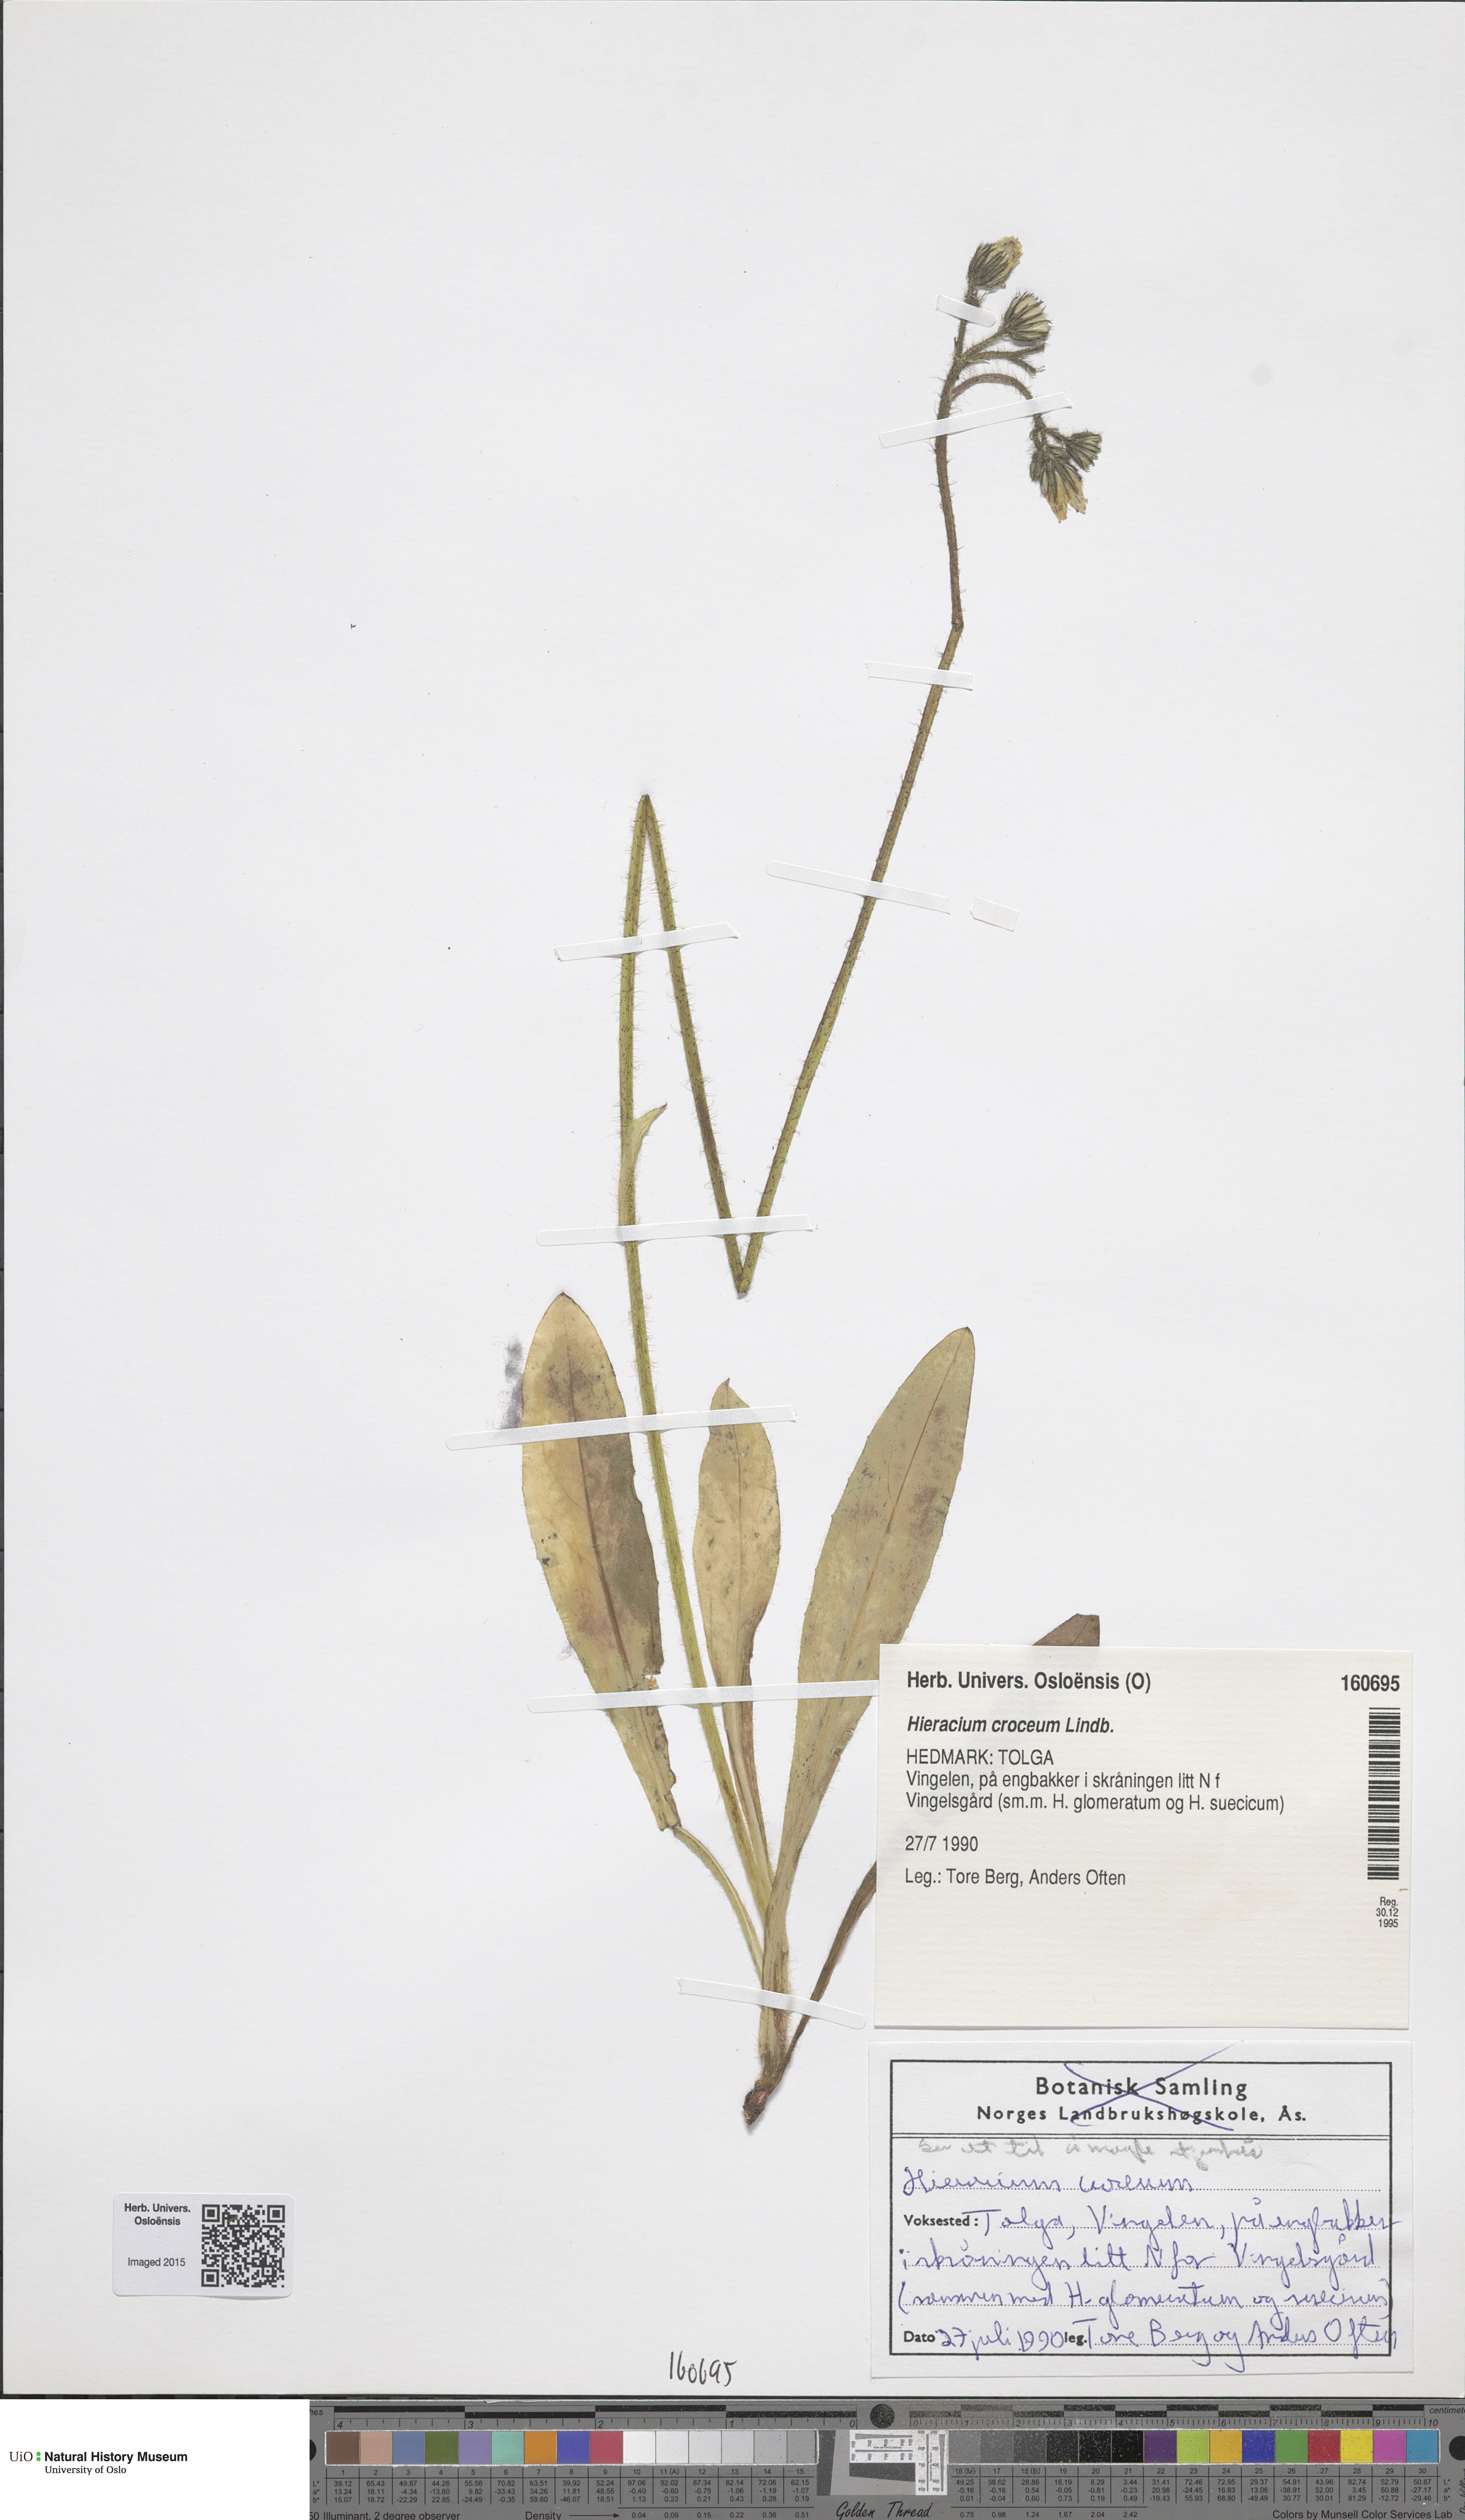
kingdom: Plantae
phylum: Tracheophyta
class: Magnoliopsida
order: Asterales
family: Asteraceae
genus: Pilosella
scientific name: Pilosella fuscoatra
